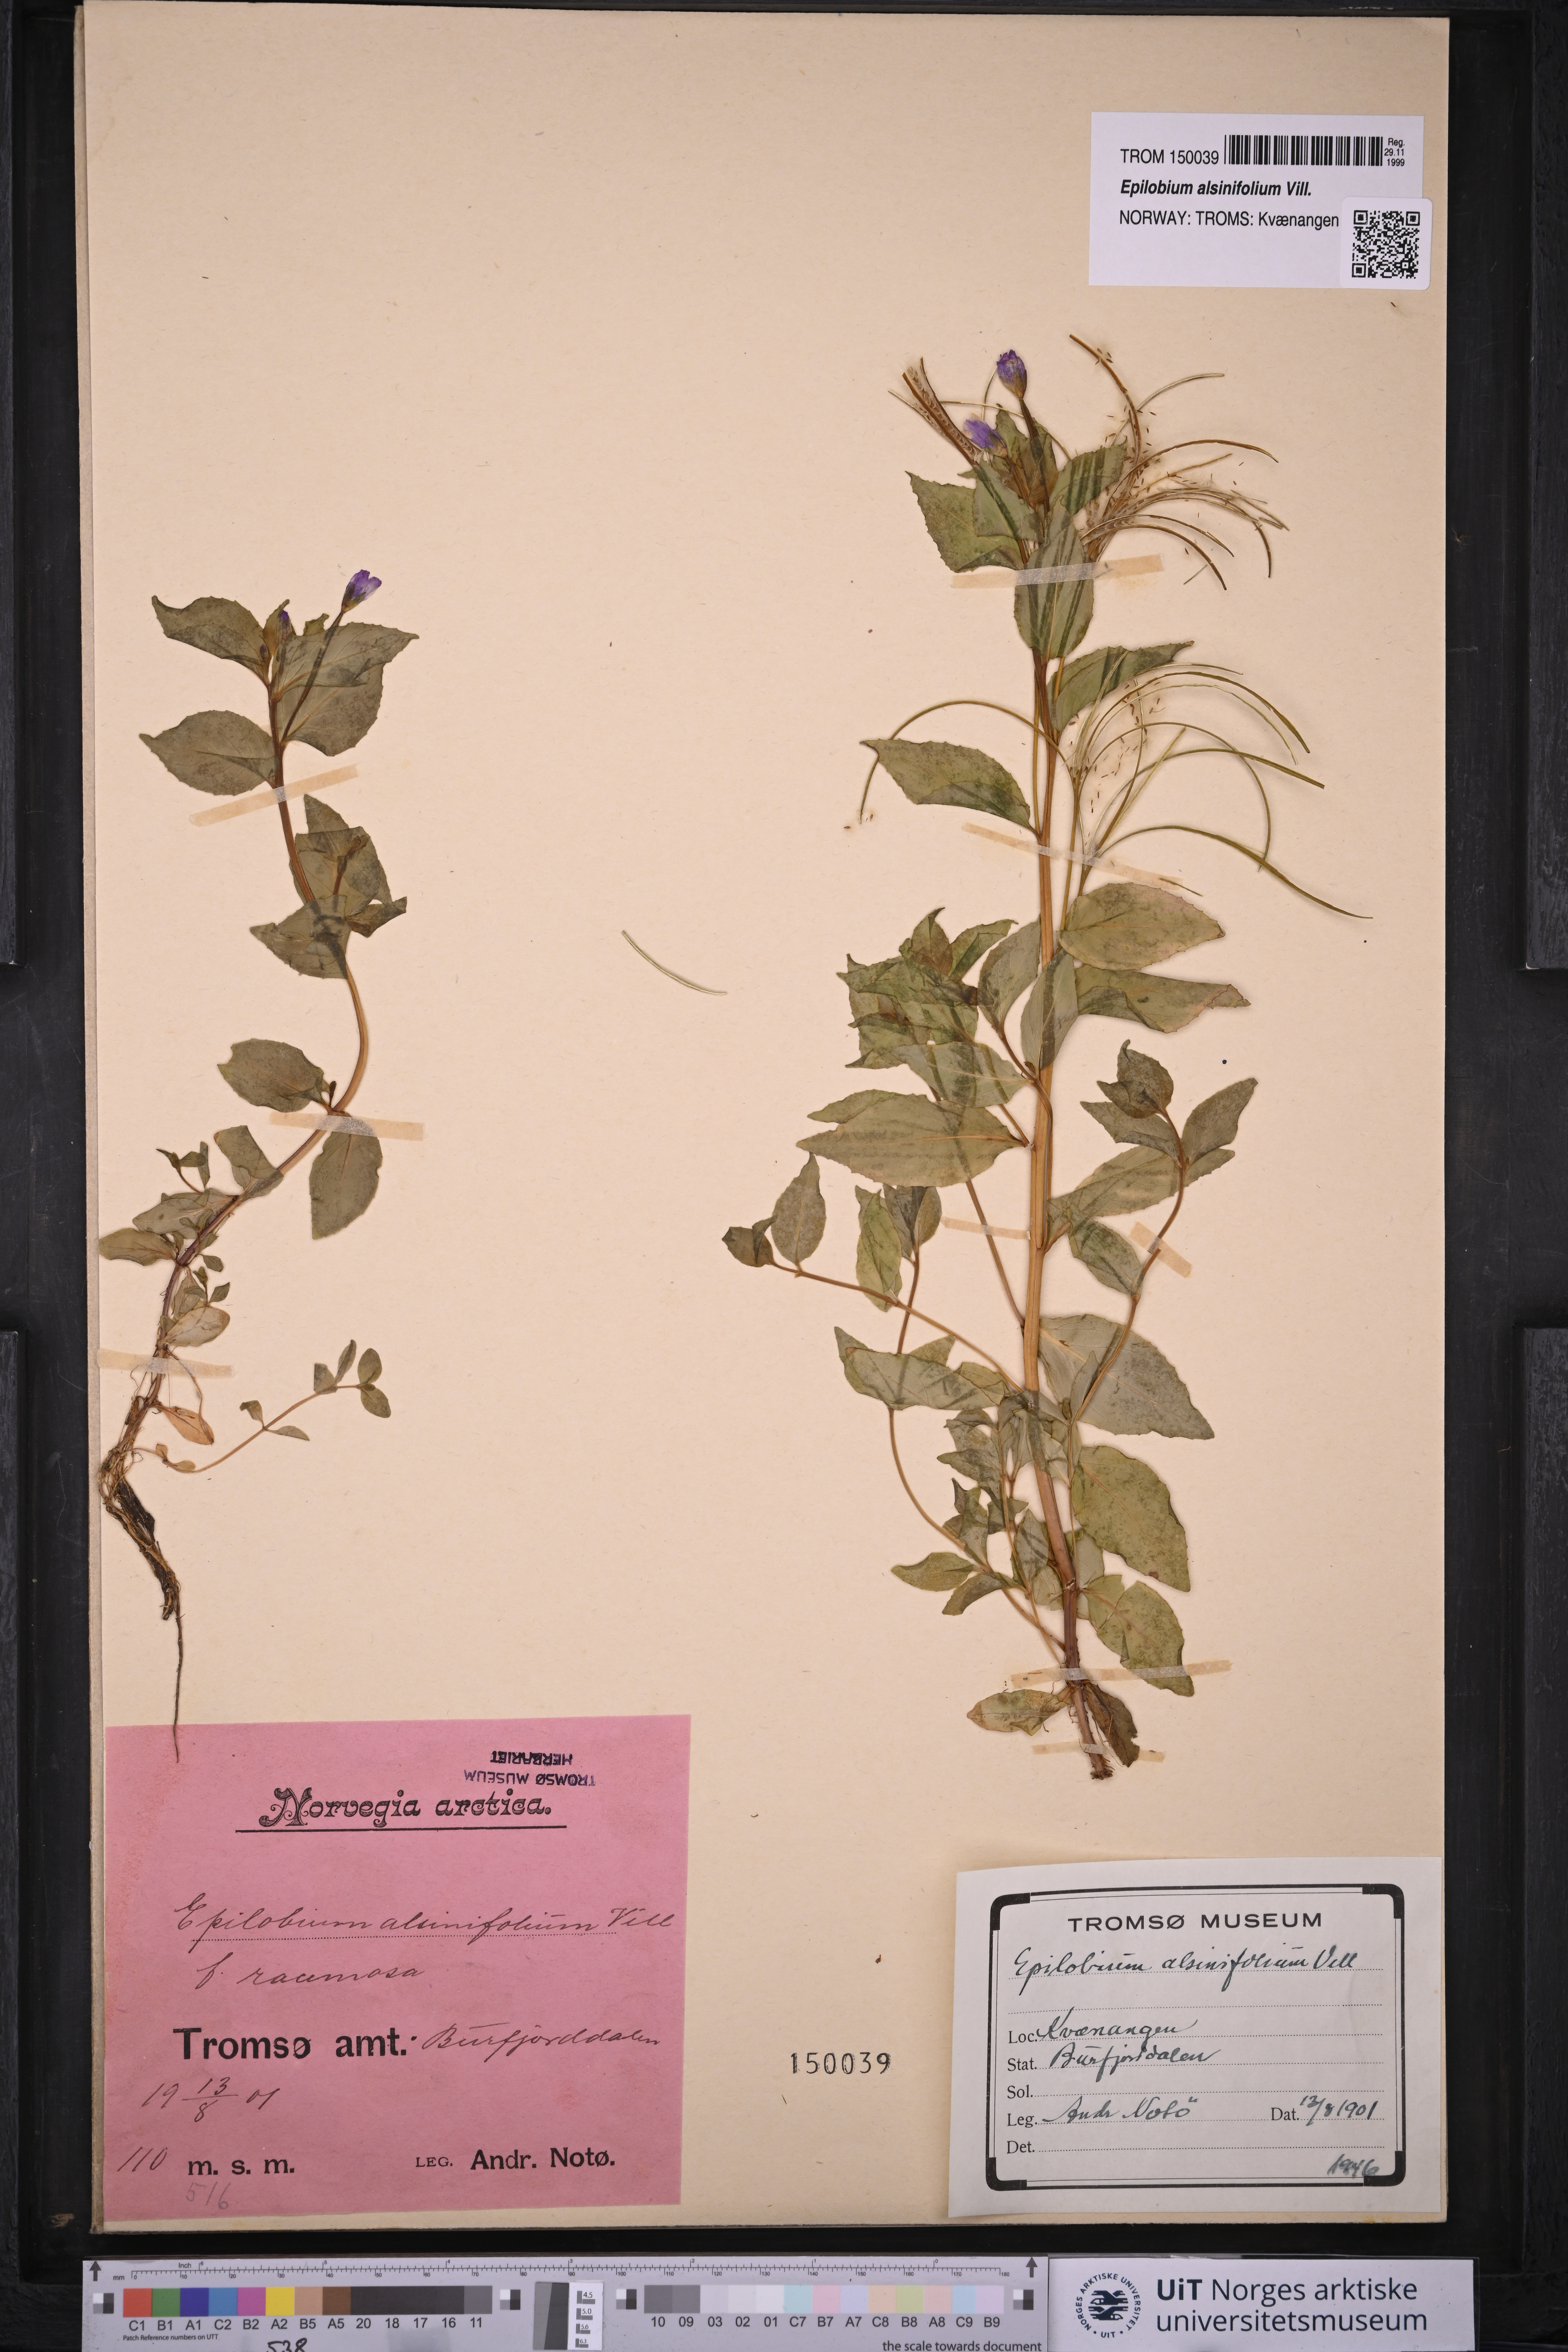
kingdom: Plantae
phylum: Tracheophyta
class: Magnoliopsida
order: Myrtales
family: Onagraceae
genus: Epilobium
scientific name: Epilobium alsinifolium
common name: Chickweed willowherb
